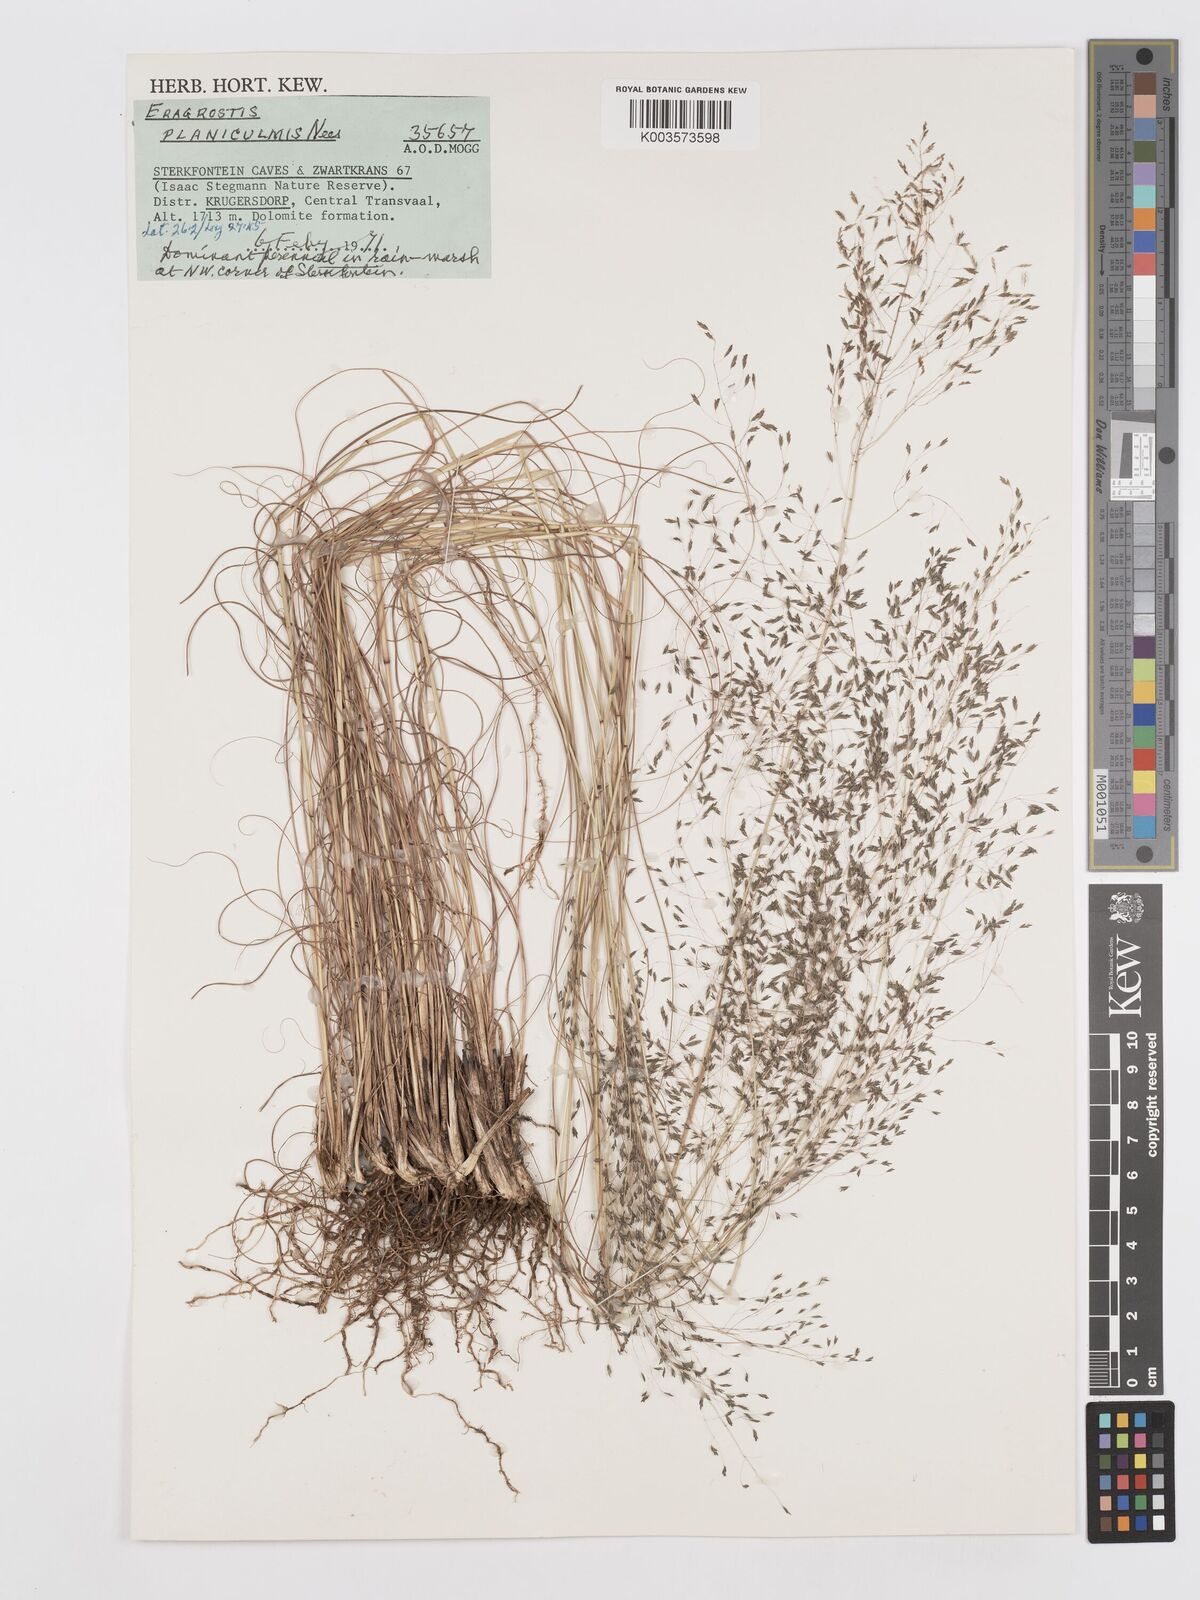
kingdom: Plantae
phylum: Tracheophyta
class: Liliopsida
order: Poales
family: Poaceae
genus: Eragrostis
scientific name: Eragrostis planiculmis
